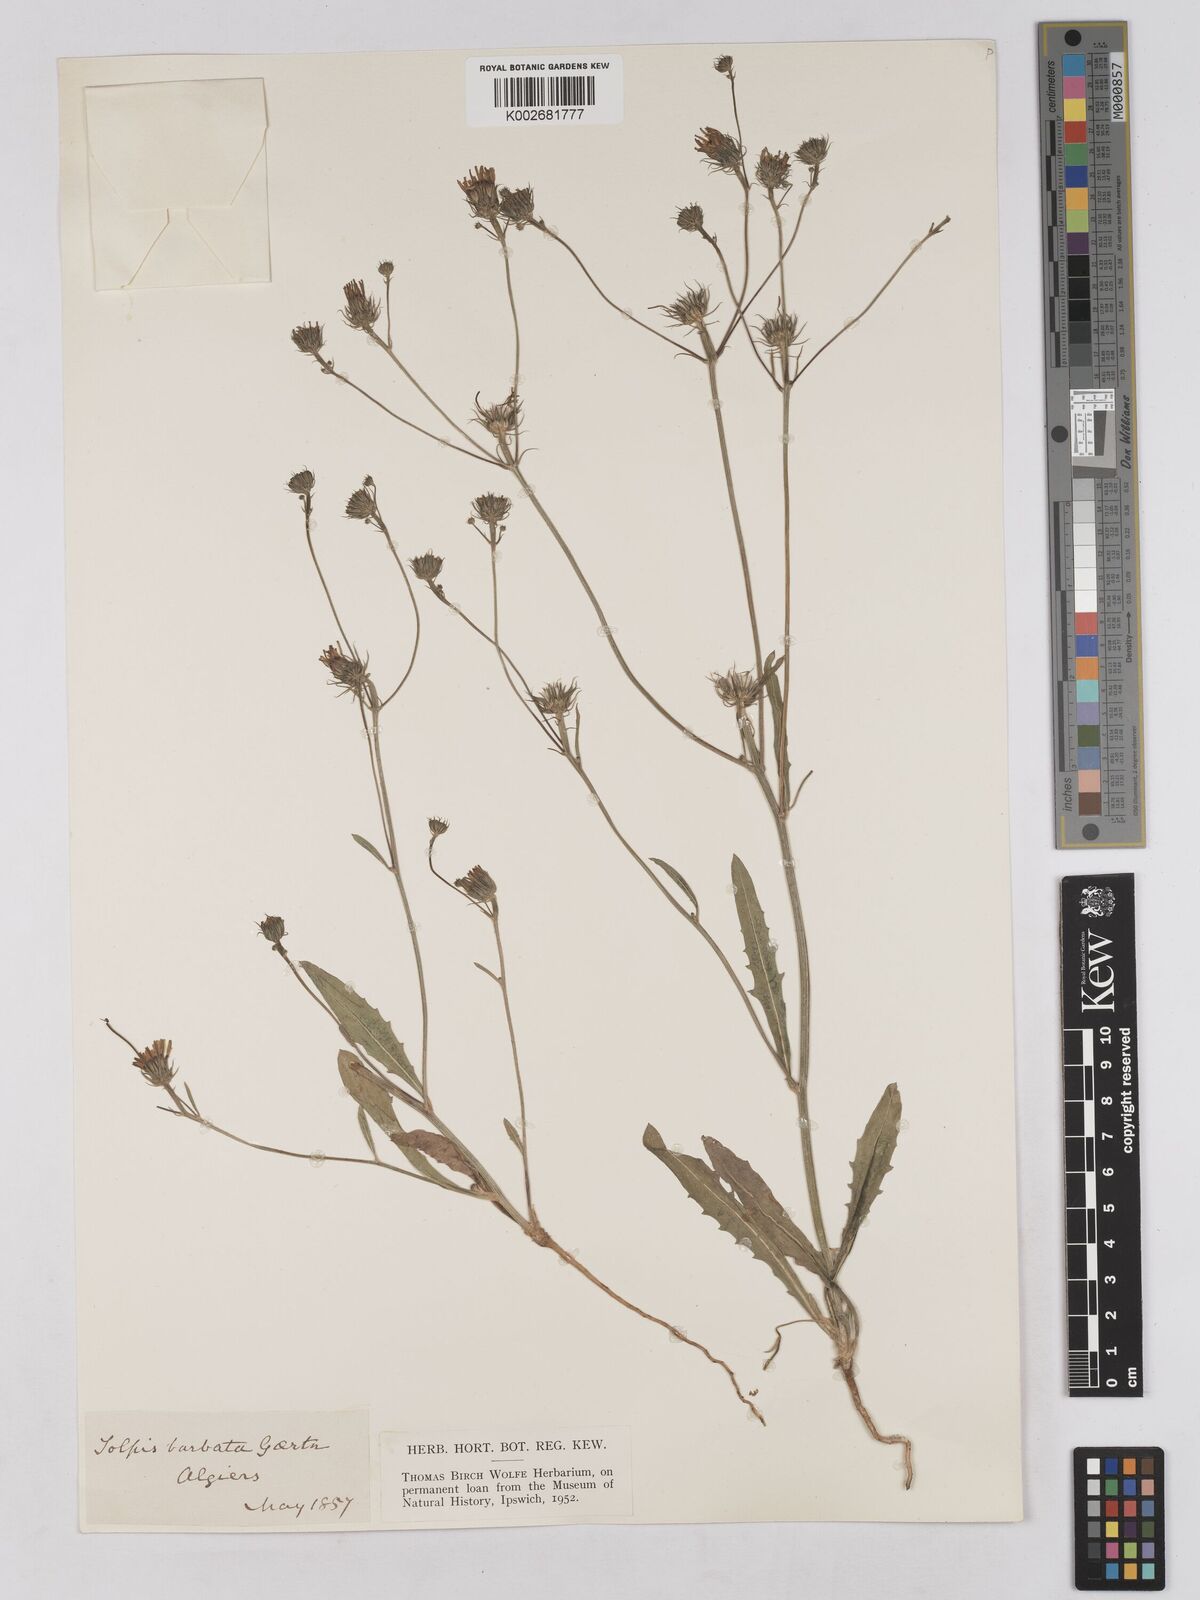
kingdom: Plantae
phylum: Tracheophyta
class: Magnoliopsida
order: Asterales
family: Asteraceae
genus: Tolpis
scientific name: Tolpis barbata
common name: Yellow hawkweed
